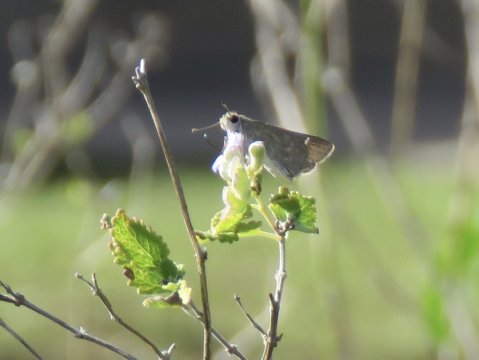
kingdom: Animalia
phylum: Arthropoda
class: Insecta
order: Lepidoptera
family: Hesperiidae
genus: Lerodea
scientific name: Lerodea eufala
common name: Eufala Skipper
